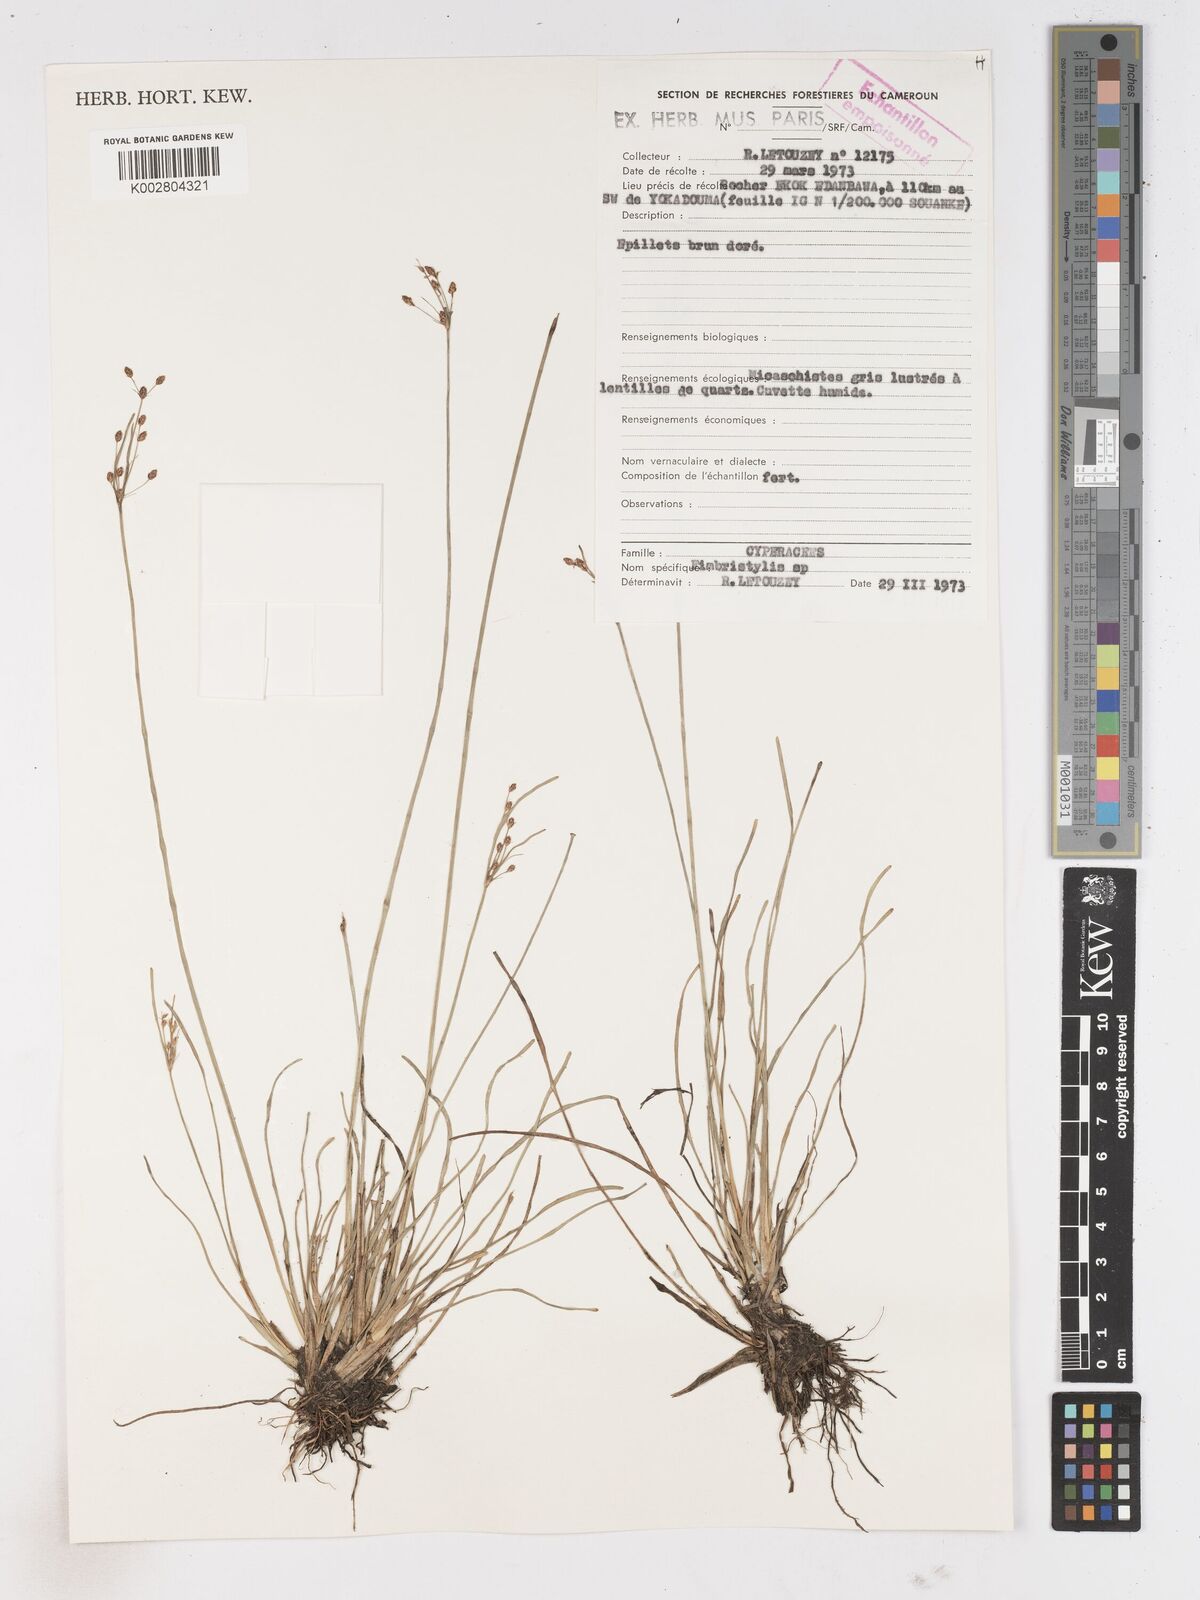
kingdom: Plantae
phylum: Tracheophyta
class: Liliopsida
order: Poales
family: Cyperaceae
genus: Fimbristylis
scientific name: Fimbristylis
